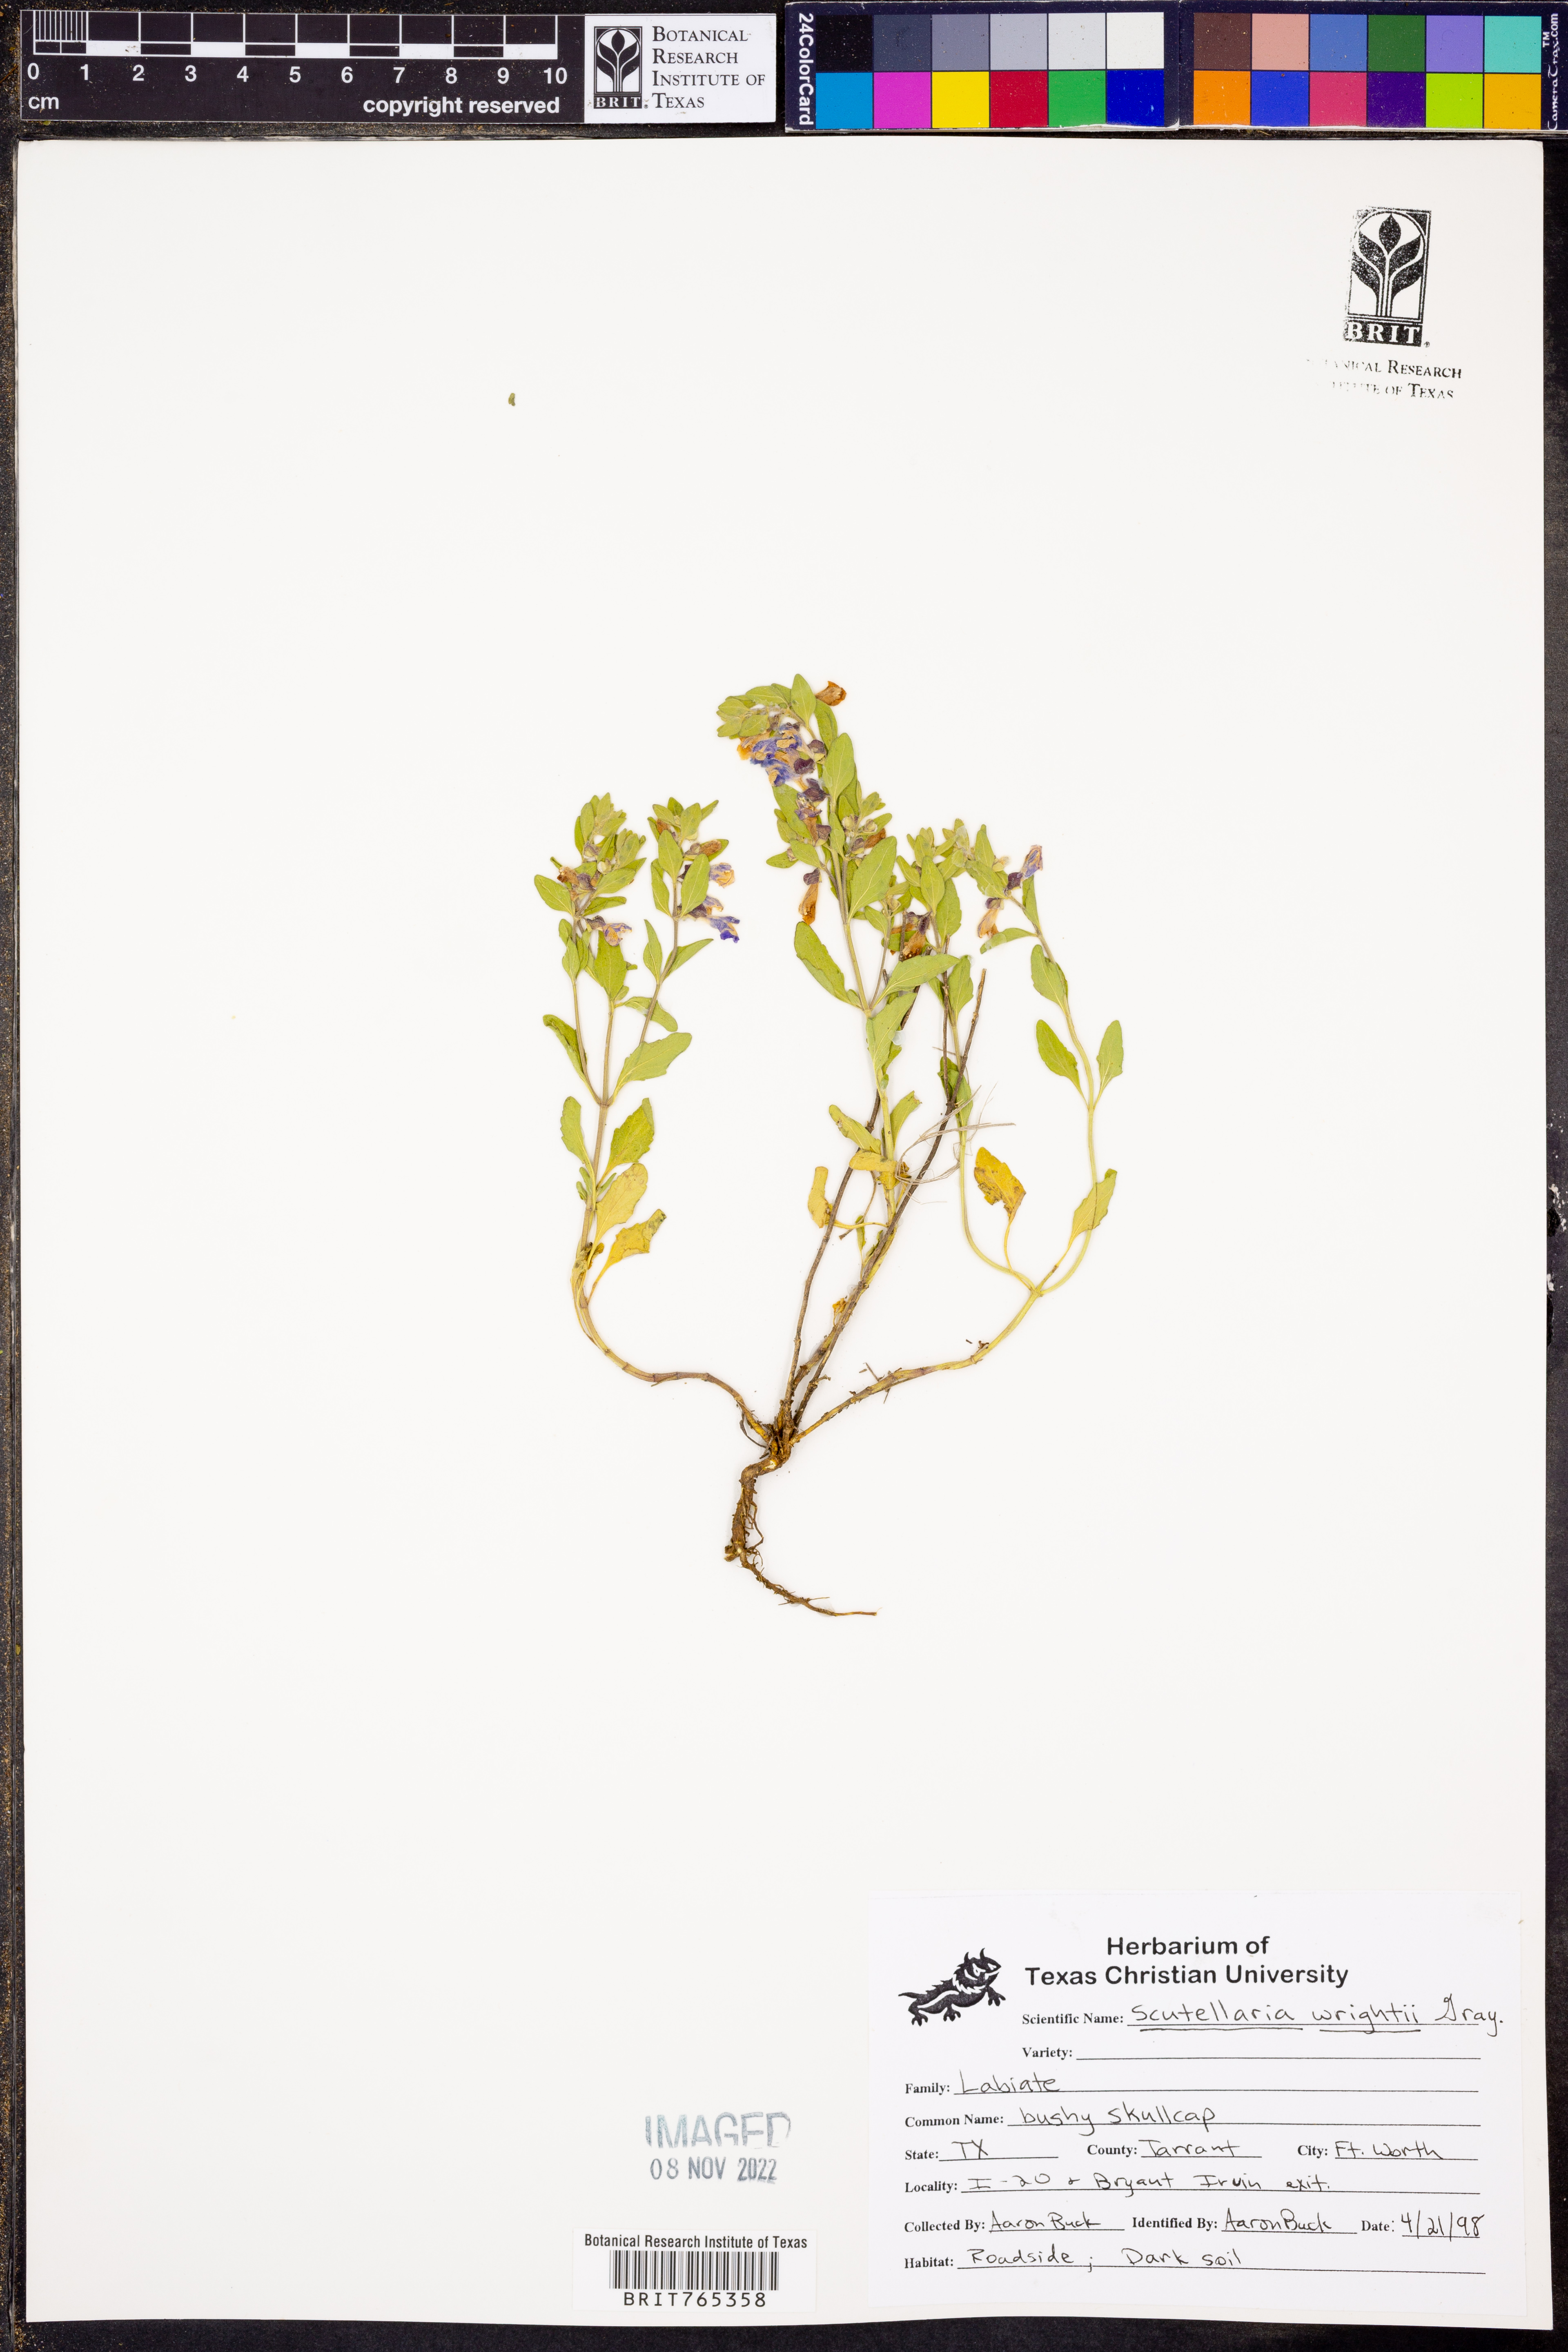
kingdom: Plantae
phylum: Tracheophyta
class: Magnoliopsida
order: Lamiales
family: Lamiaceae
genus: Scutellaria
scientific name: Scutellaria wrightii
